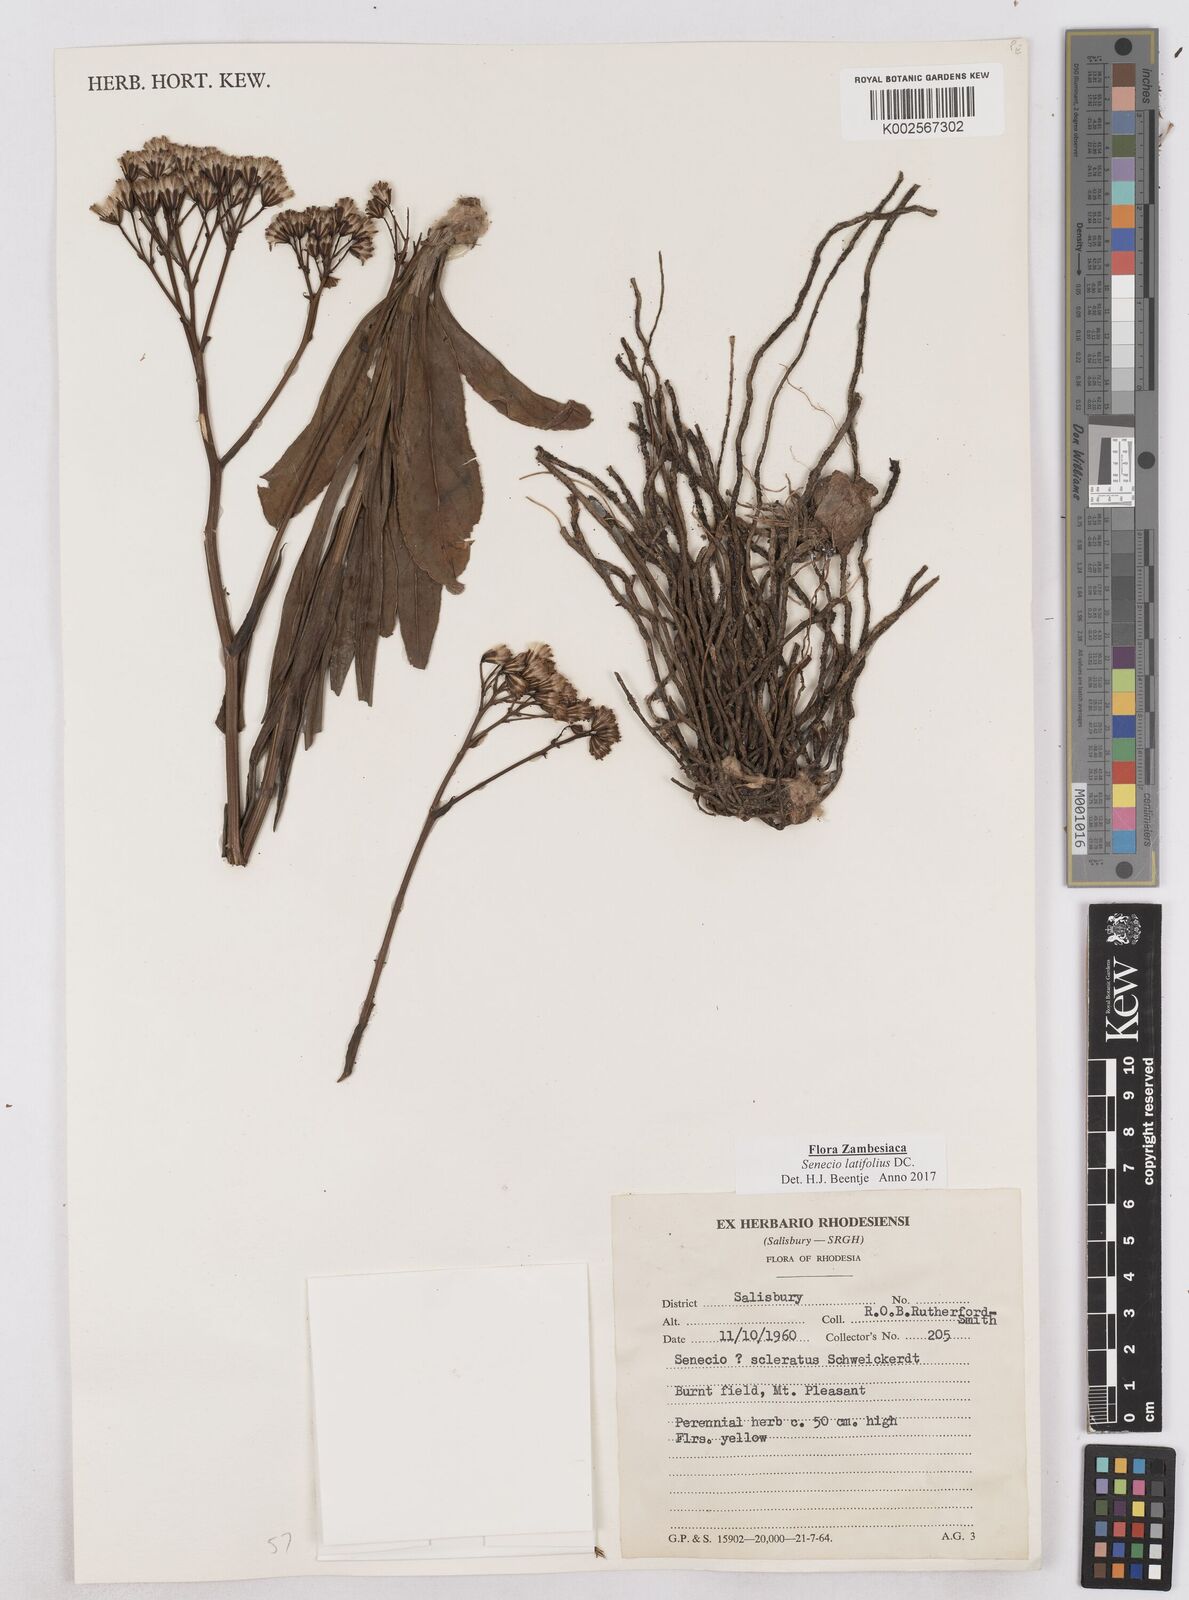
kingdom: Plantae
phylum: Tracheophyta
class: Magnoliopsida
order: Asterales
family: Asteraceae
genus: Senecio
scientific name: Senecio latifolius
